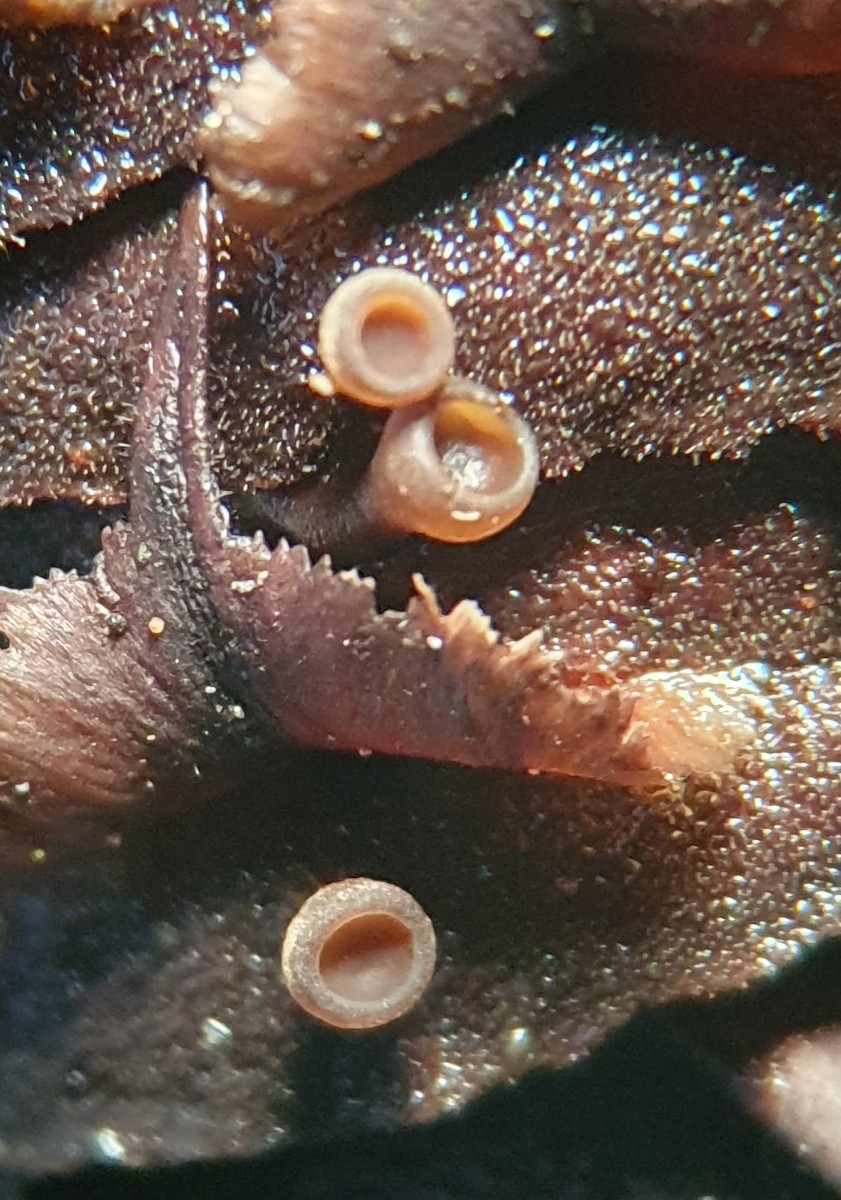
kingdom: Fungi
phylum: Ascomycota
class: Leotiomycetes
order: Helotiales
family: Sclerotiniaceae
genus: Ciboria
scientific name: Ciboria rufofusca
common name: kogleskæl-knoldskive
